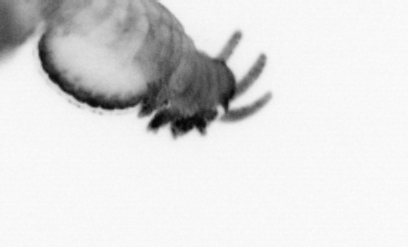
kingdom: Animalia
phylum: Annelida
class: Polychaeta
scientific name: Polychaeta
